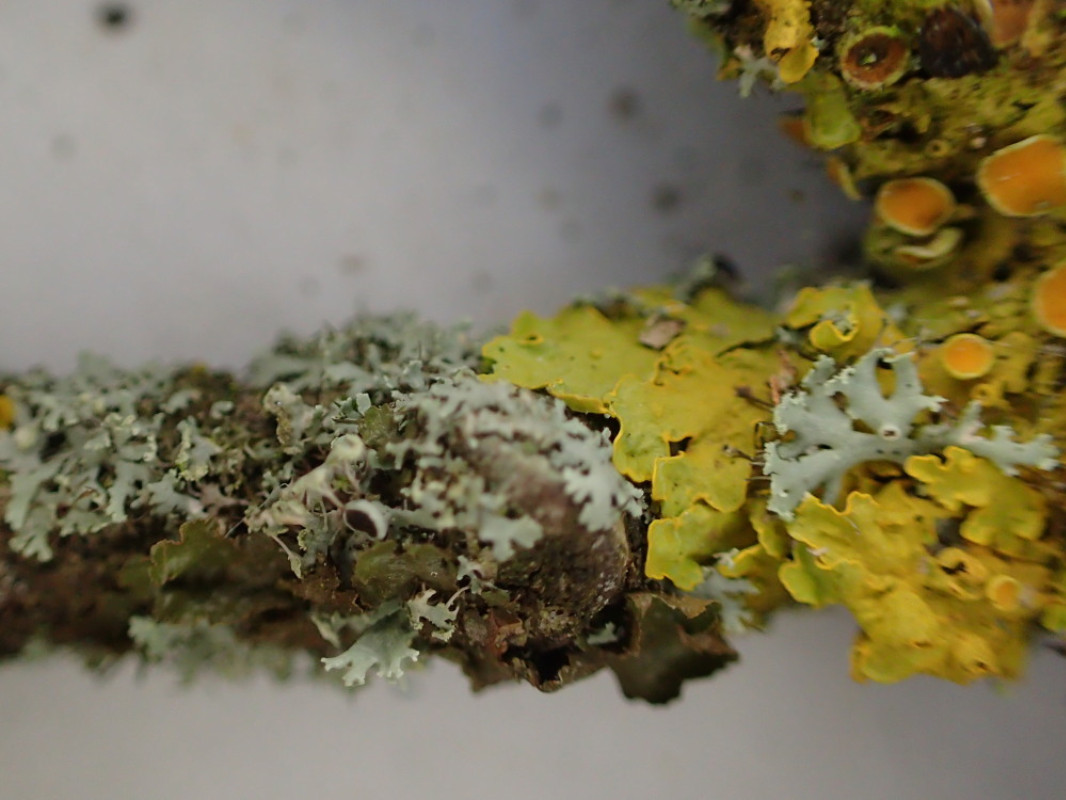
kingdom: Fungi
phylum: Ascomycota
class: Lecanoromycetes
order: Caliciales
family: Physciaceae
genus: Physcia
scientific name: Physcia tenella
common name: spæd rosetlav
